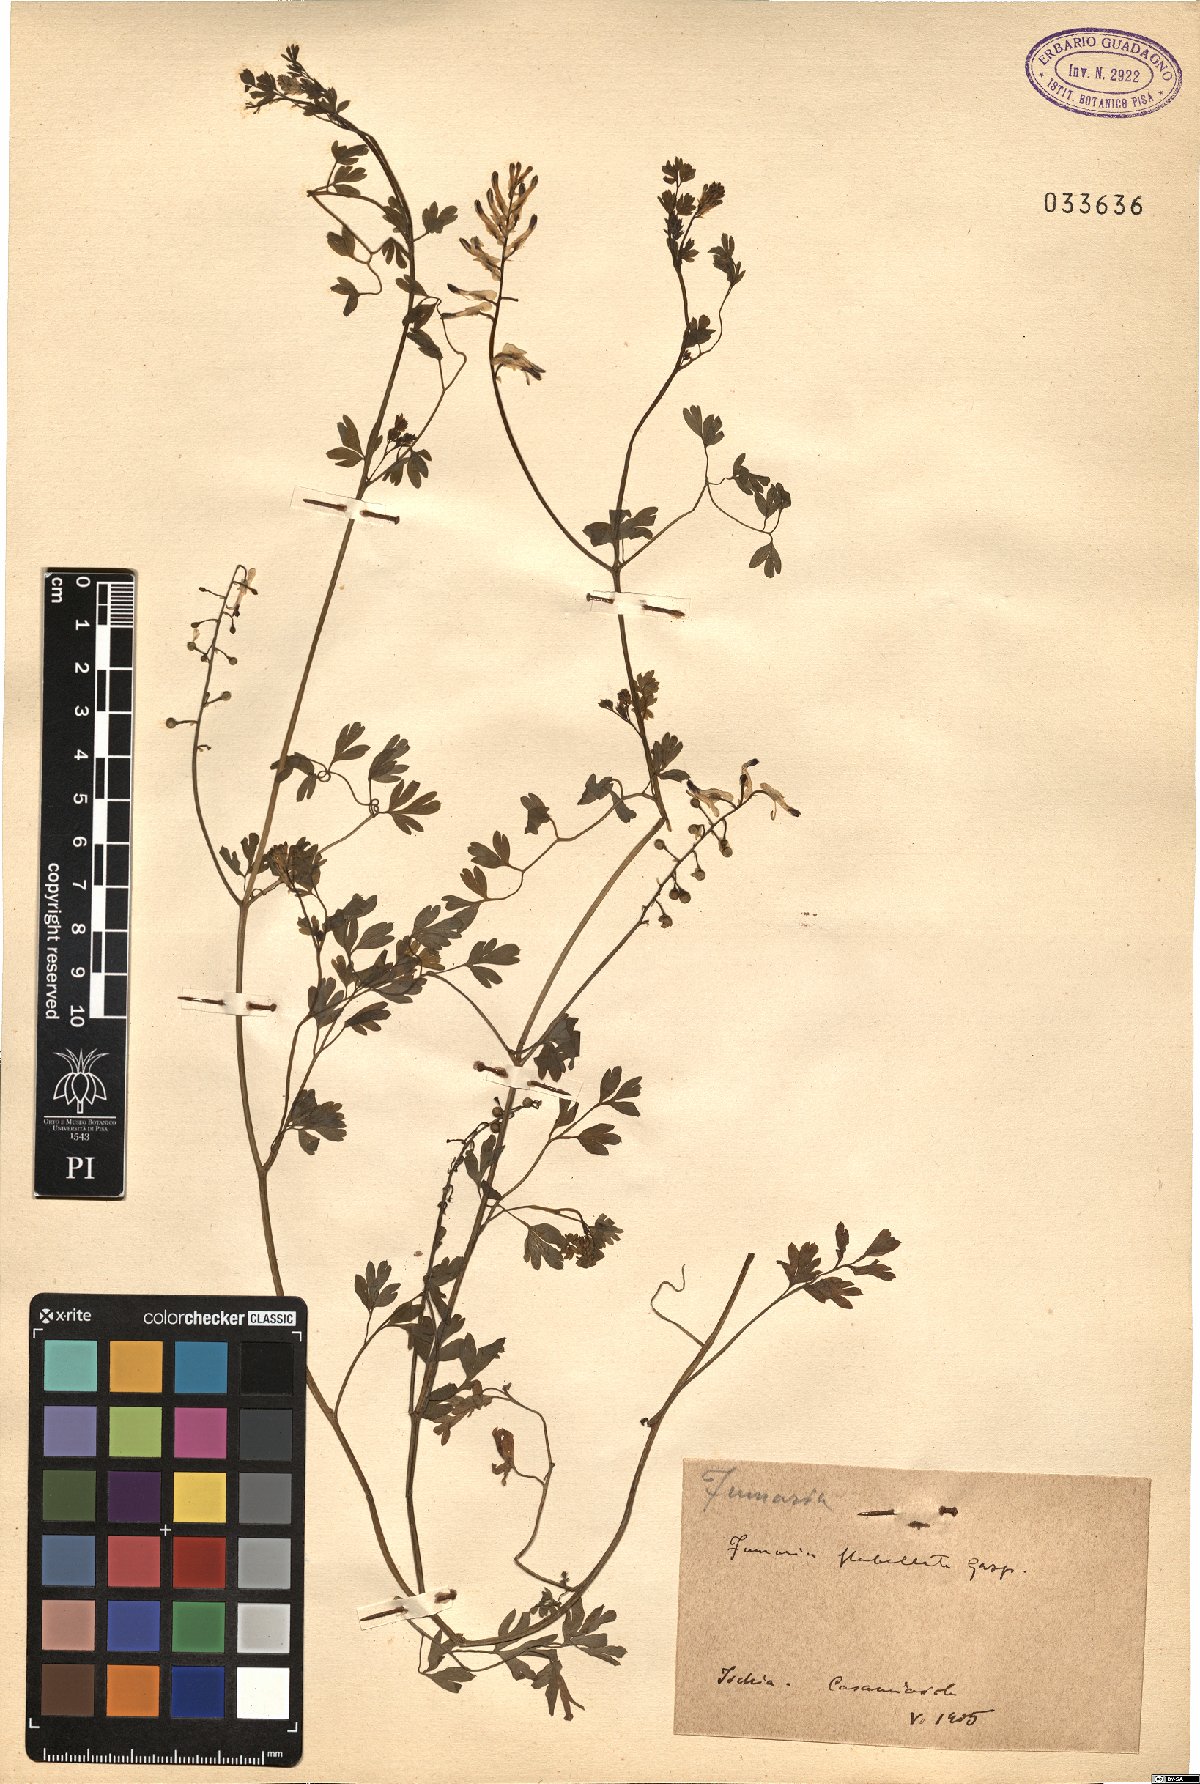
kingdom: Plantae
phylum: Tracheophyta
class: Magnoliopsida
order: Ranunculales
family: Papaveraceae
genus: Fumaria
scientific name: Fumaria flabellata
